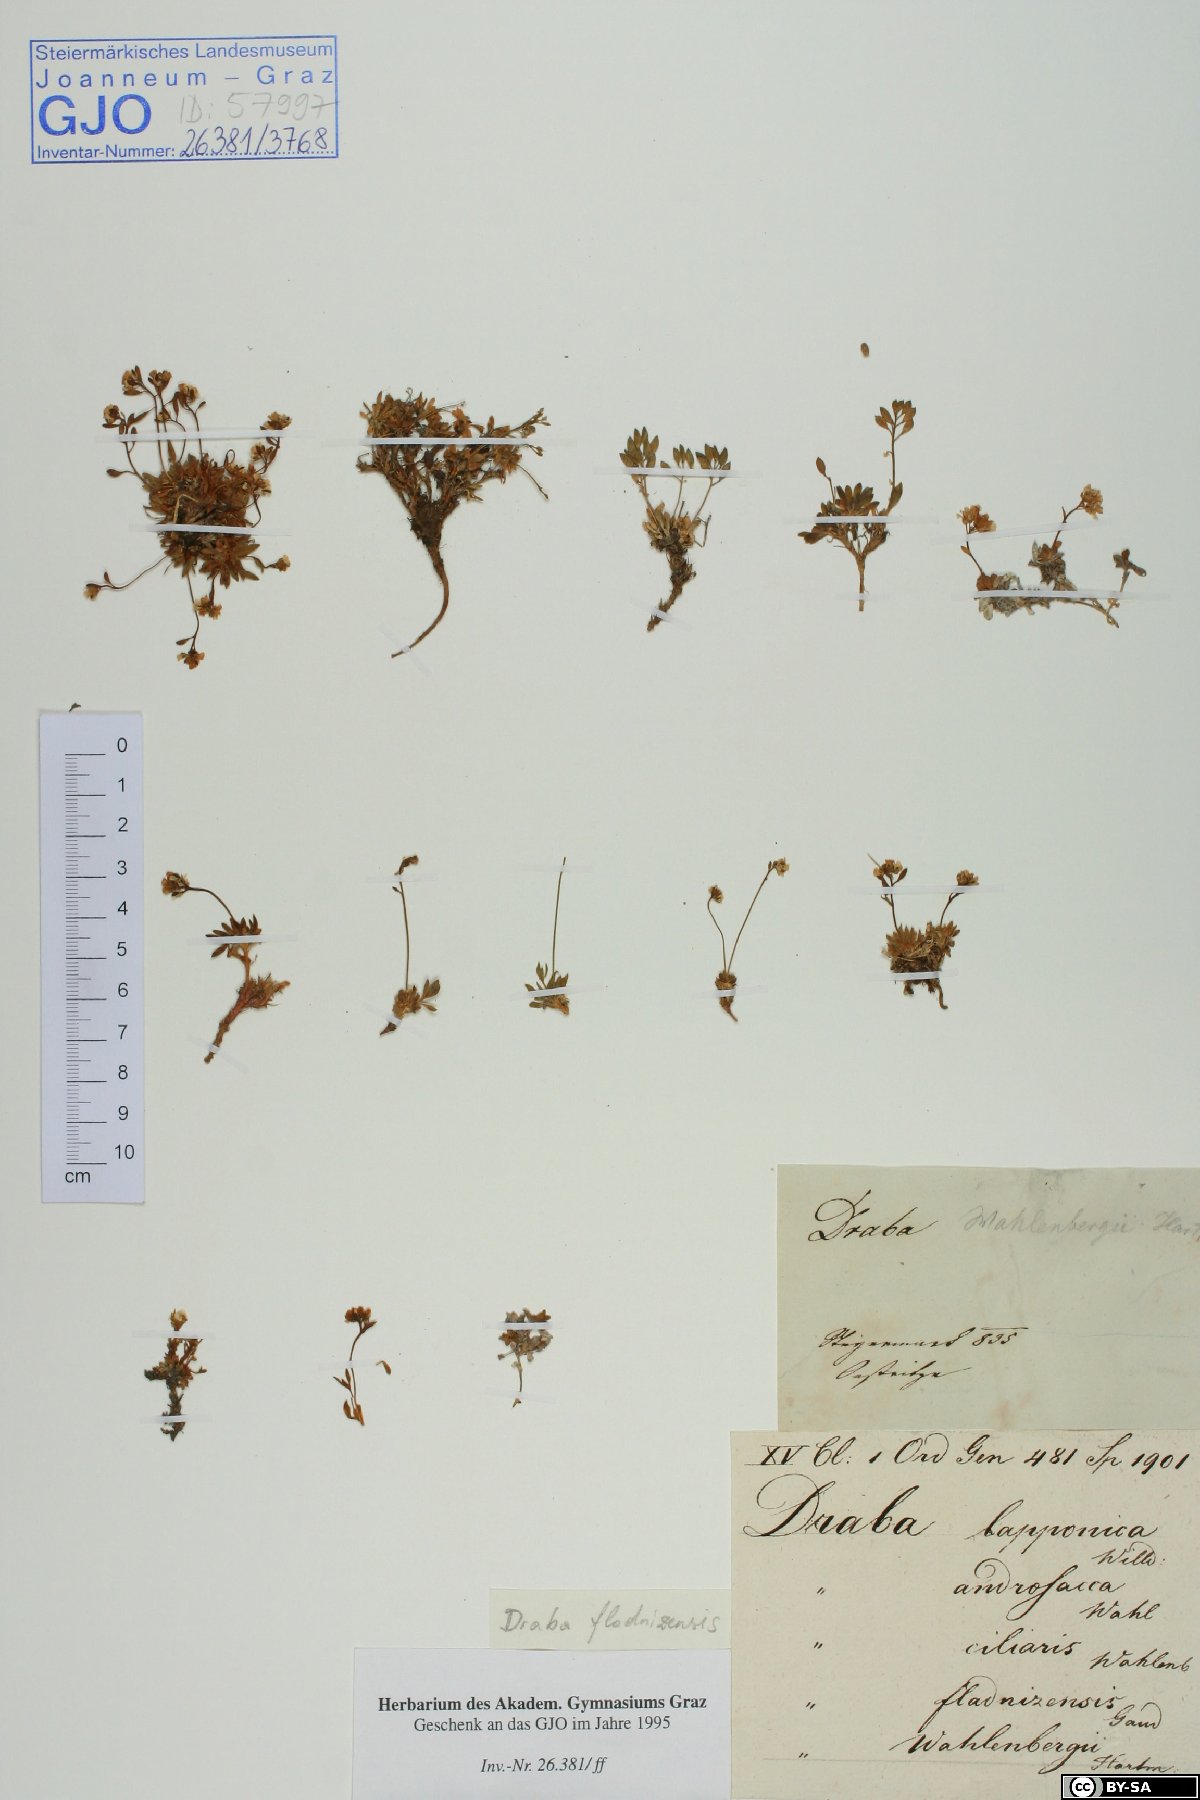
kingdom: Plantae
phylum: Tracheophyta
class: Magnoliopsida
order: Brassicales
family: Brassicaceae
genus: Draba
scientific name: Draba fladnizensis
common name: Austrian draba
